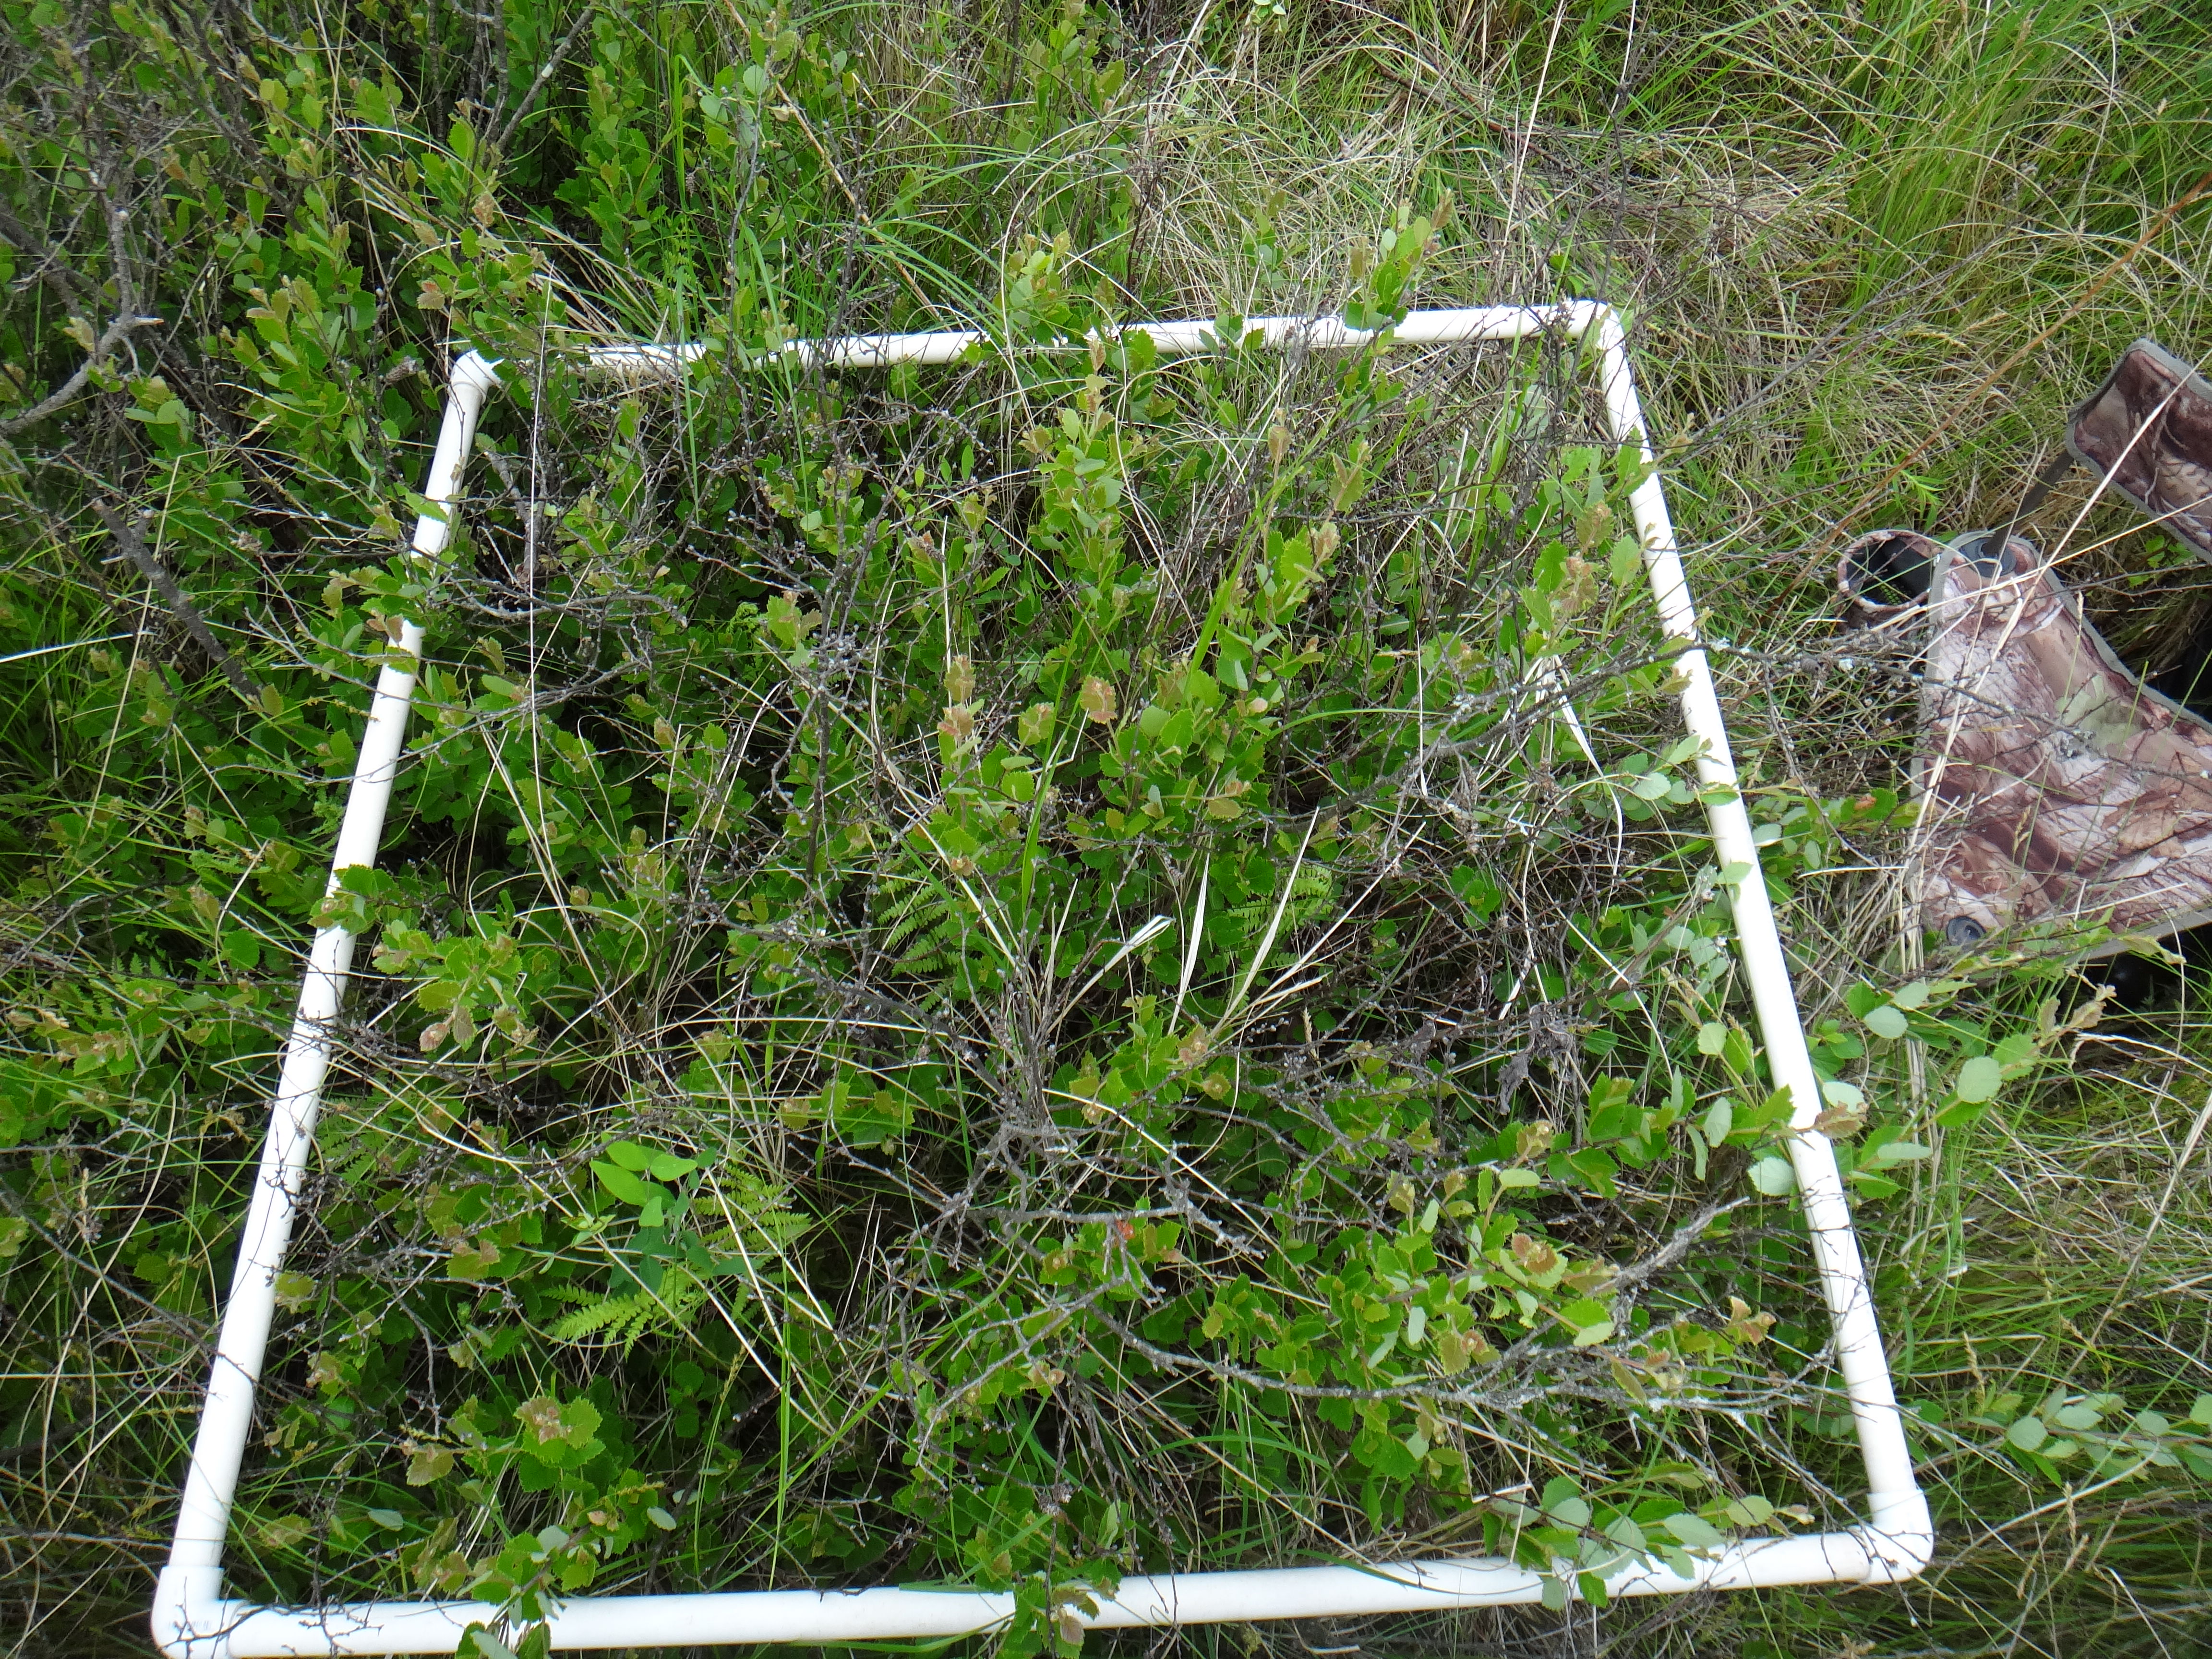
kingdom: Plantae
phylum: Tracheophyta
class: Magnoliopsida
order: Fabales
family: Fabaceae
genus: Lathyrus
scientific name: Lathyrus palustris
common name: Marsh pea
